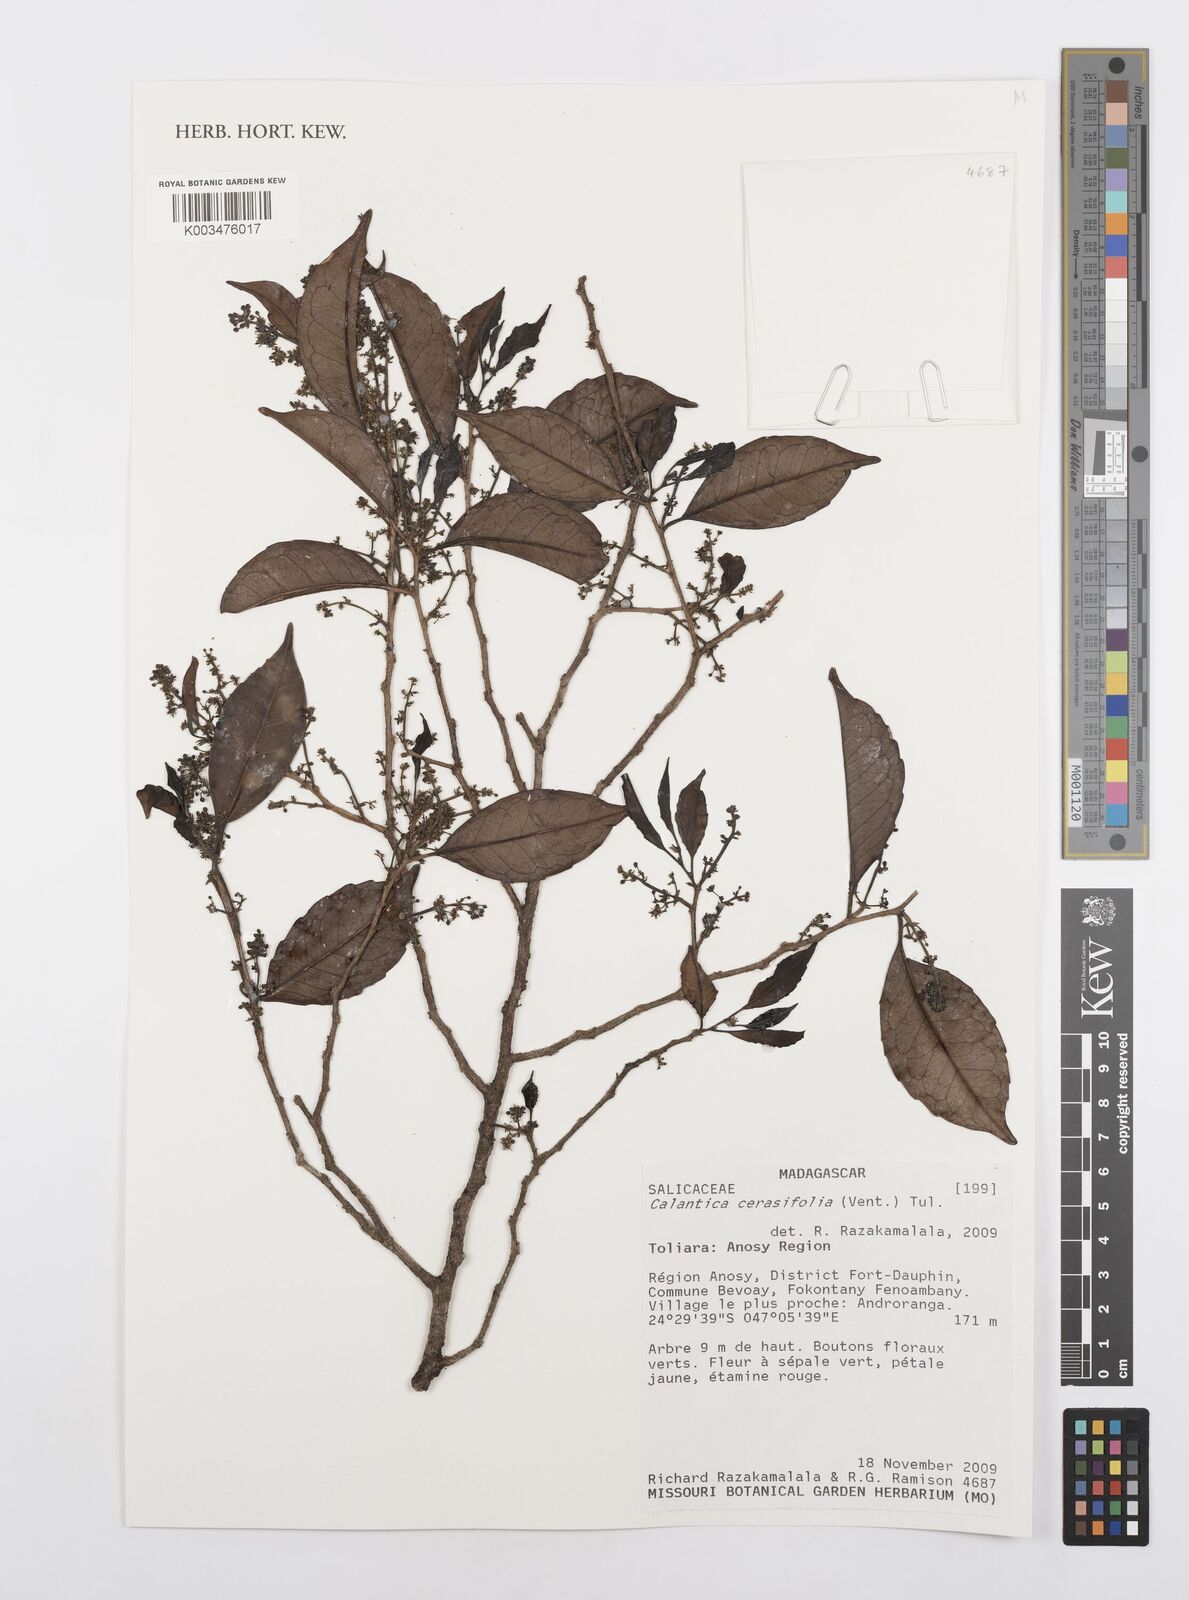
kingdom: Plantae
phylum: Tracheophyta
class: Magnoliopsida
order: Malpighiales
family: Salicaceae
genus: Calantica
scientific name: Calantica cerasifolia
